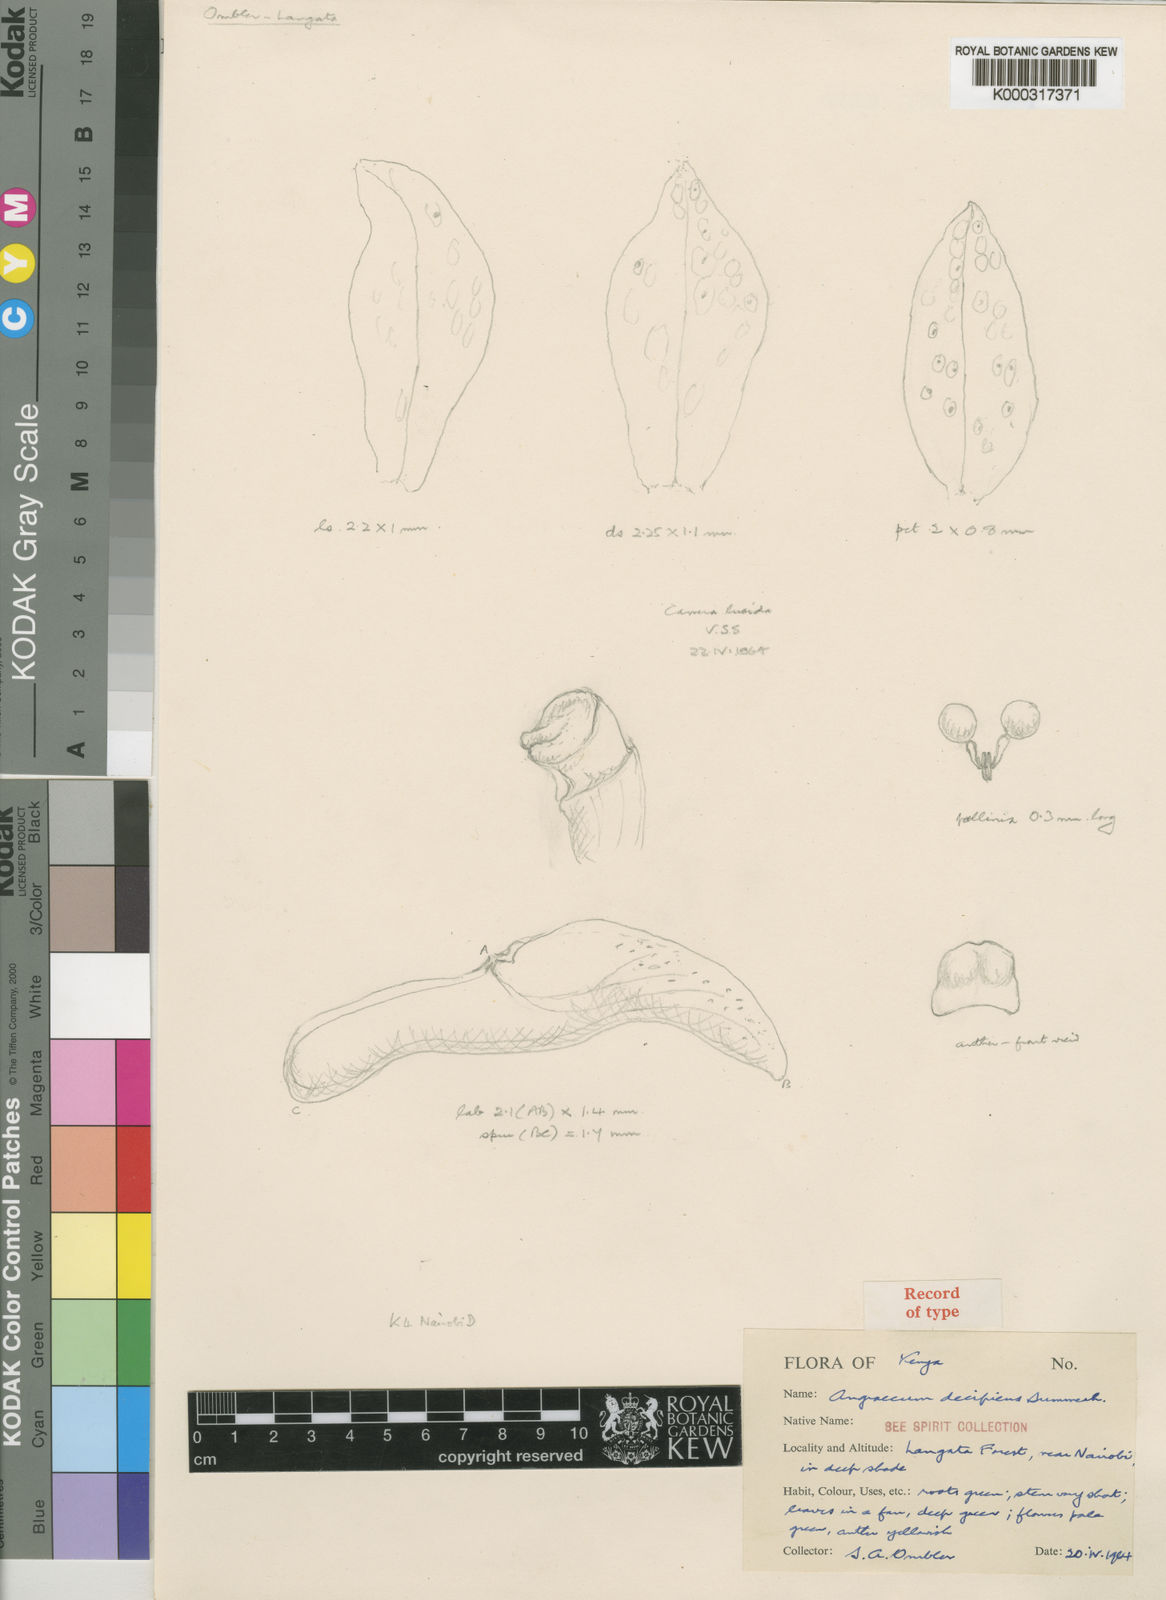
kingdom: Plantae
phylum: Tracheophyta
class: Liliopsida
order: Asparagales
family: Orchidaceae
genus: Angraecum
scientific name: Angraecum decipiens
